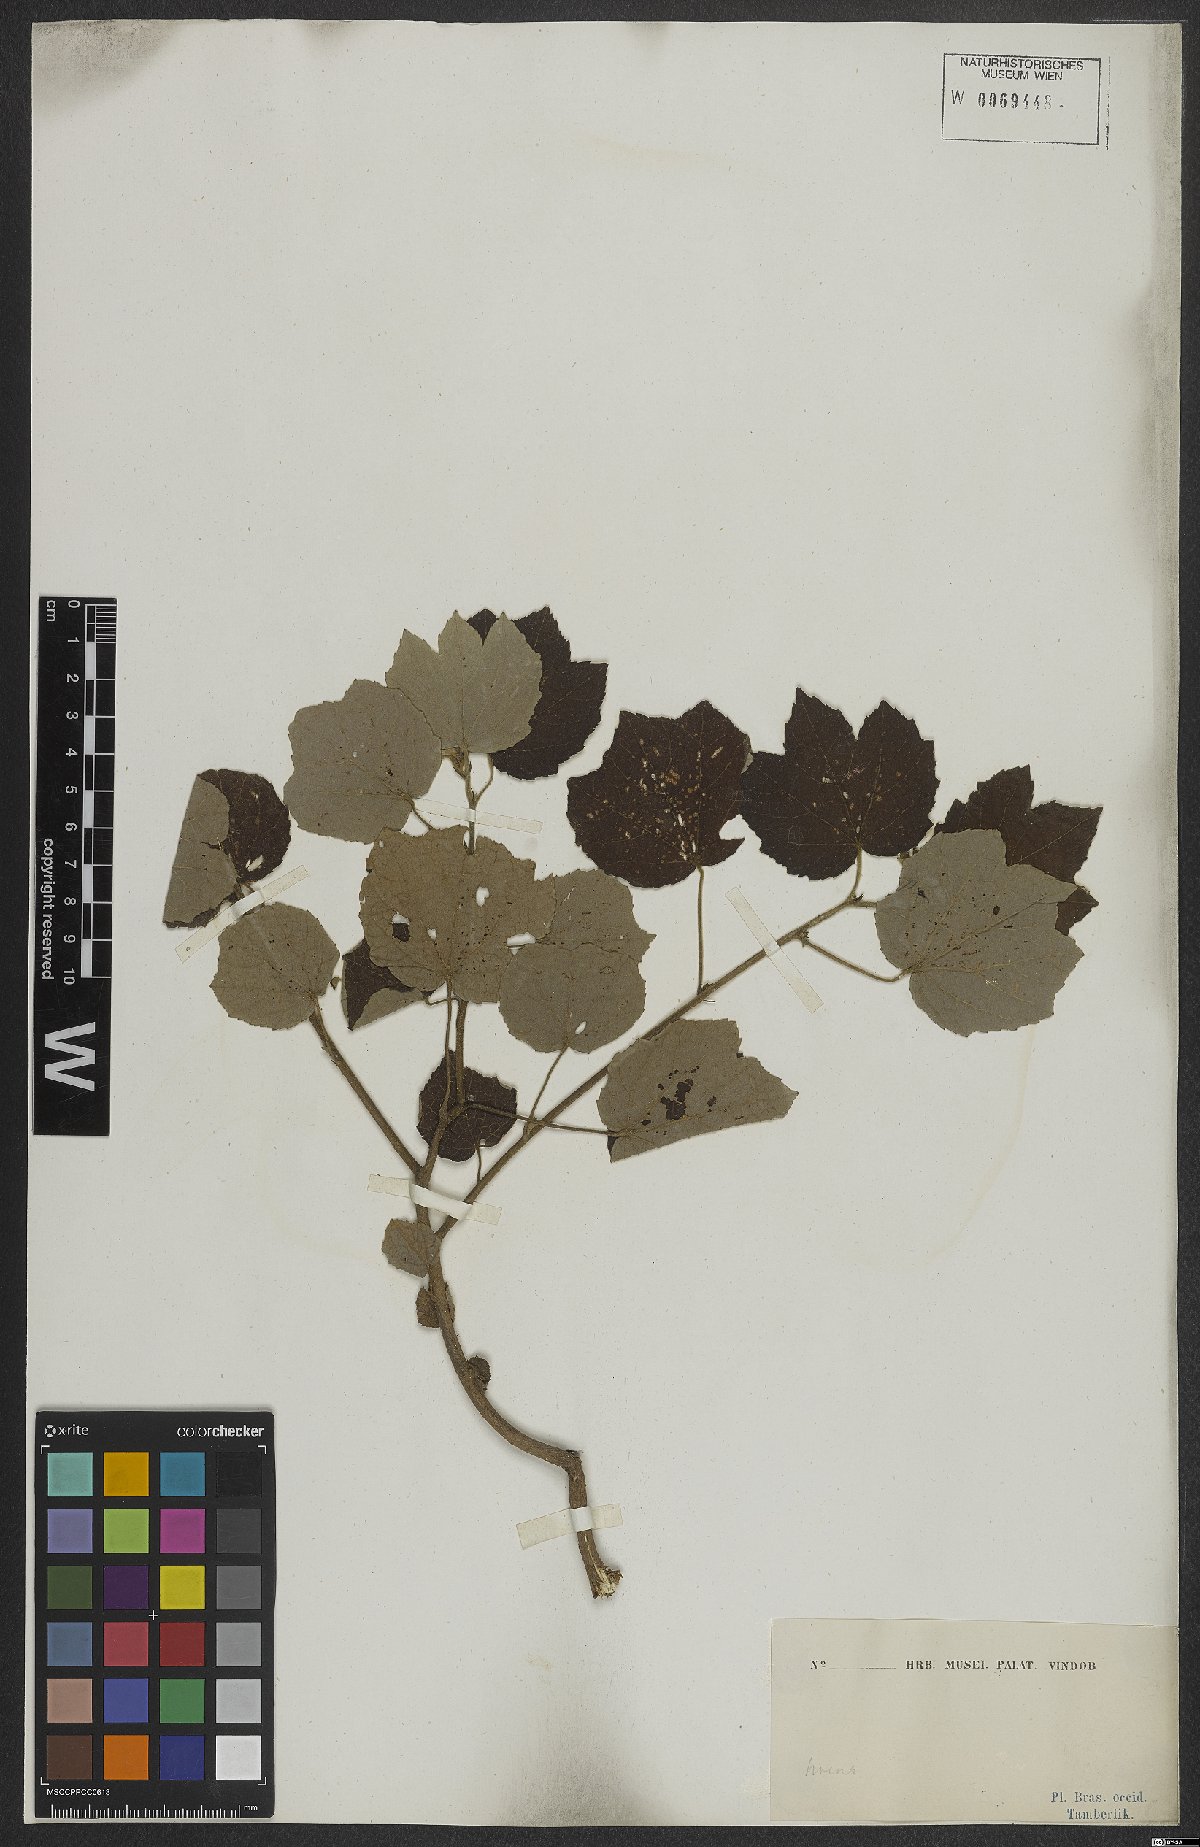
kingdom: Plantae
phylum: Tracheophyta
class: Magnoliopsida
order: Malvales
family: Malvaceae
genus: Urena
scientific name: Urena lobata
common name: Caesarweed
